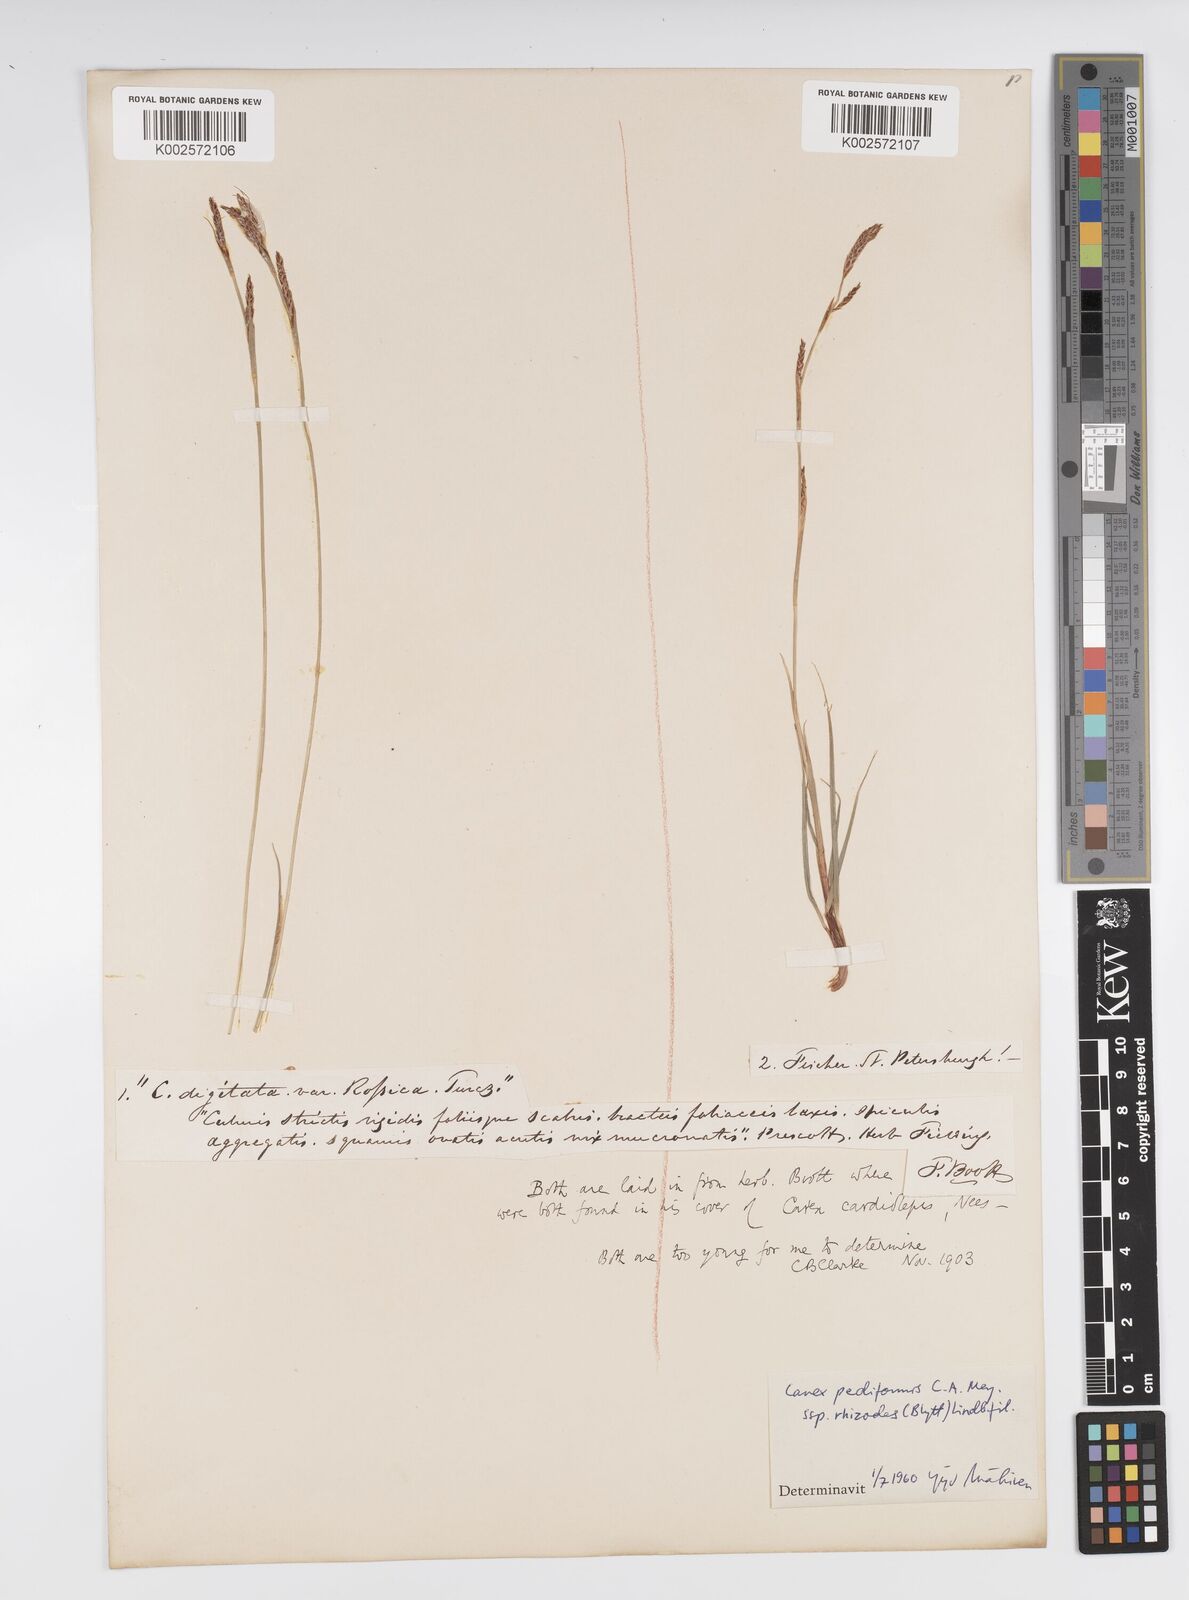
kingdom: Plantae
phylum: Tracheophyta
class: Liliopsida
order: Poales
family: Cyperaceae
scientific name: Cyperaceae
